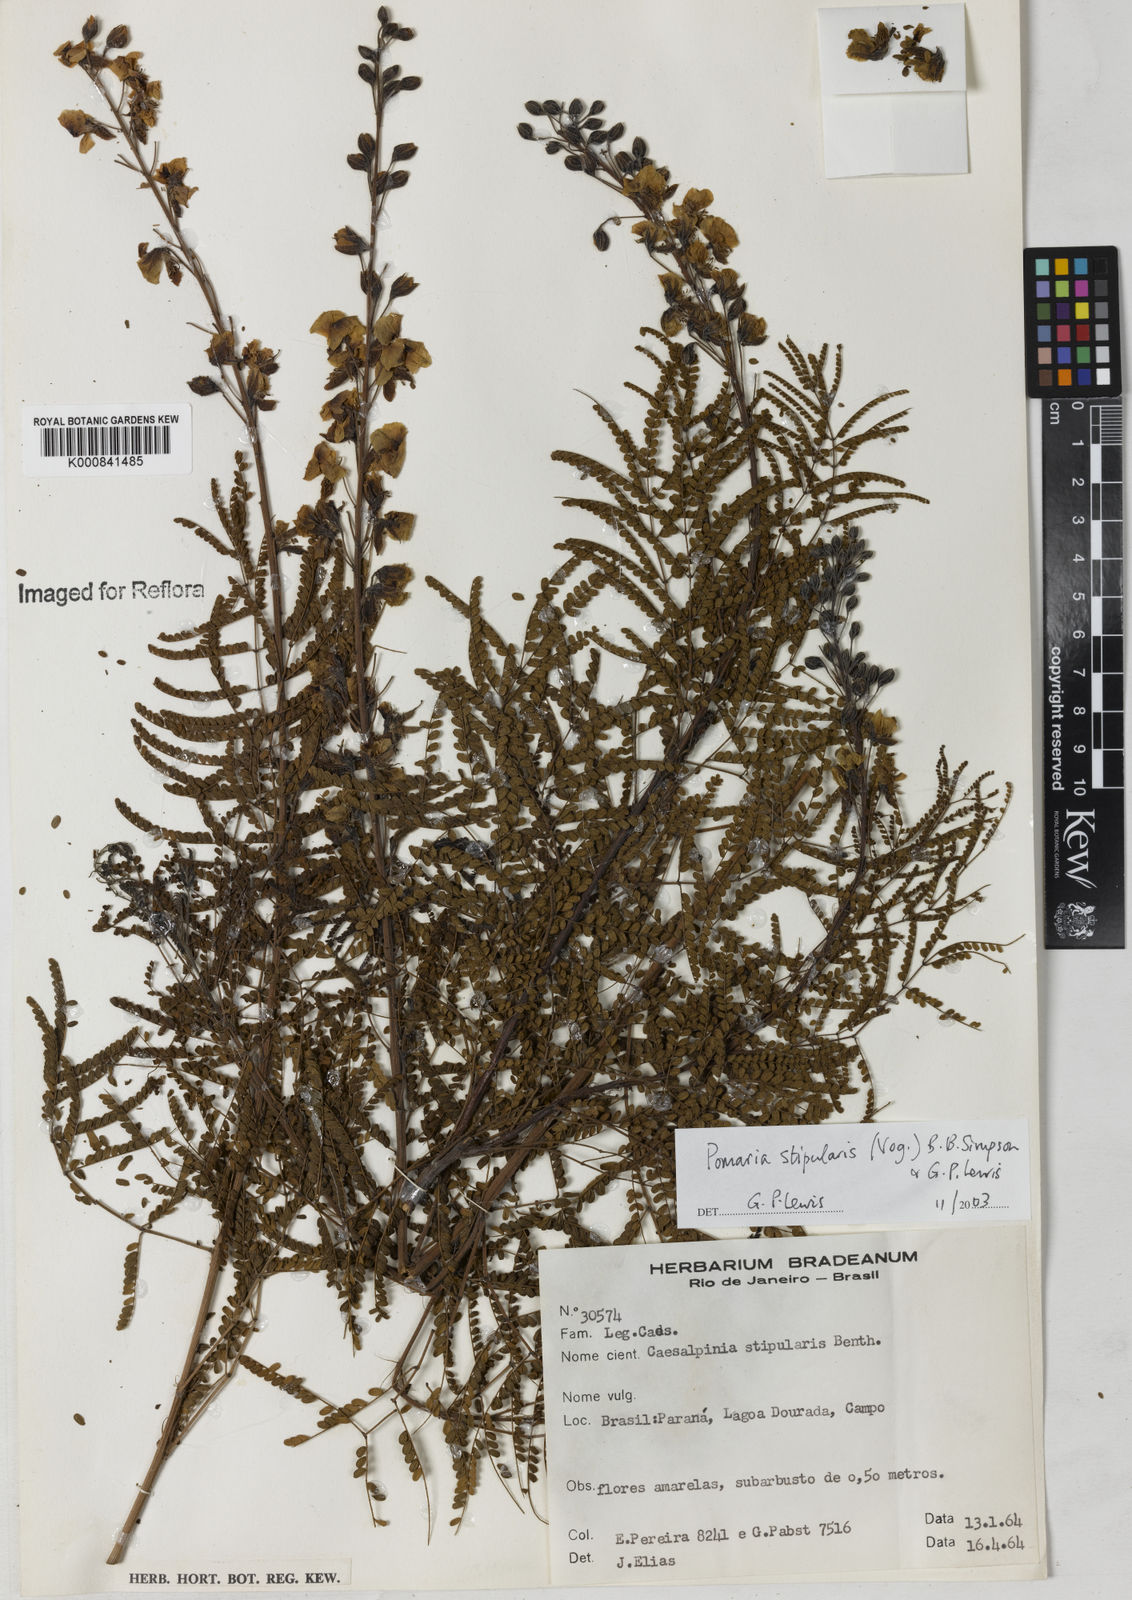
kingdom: Plantae
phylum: Tracheophyta
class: Magnoliopsida
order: Fabales
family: Fabaceae
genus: Pomaria
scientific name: Pomaria stipularis
